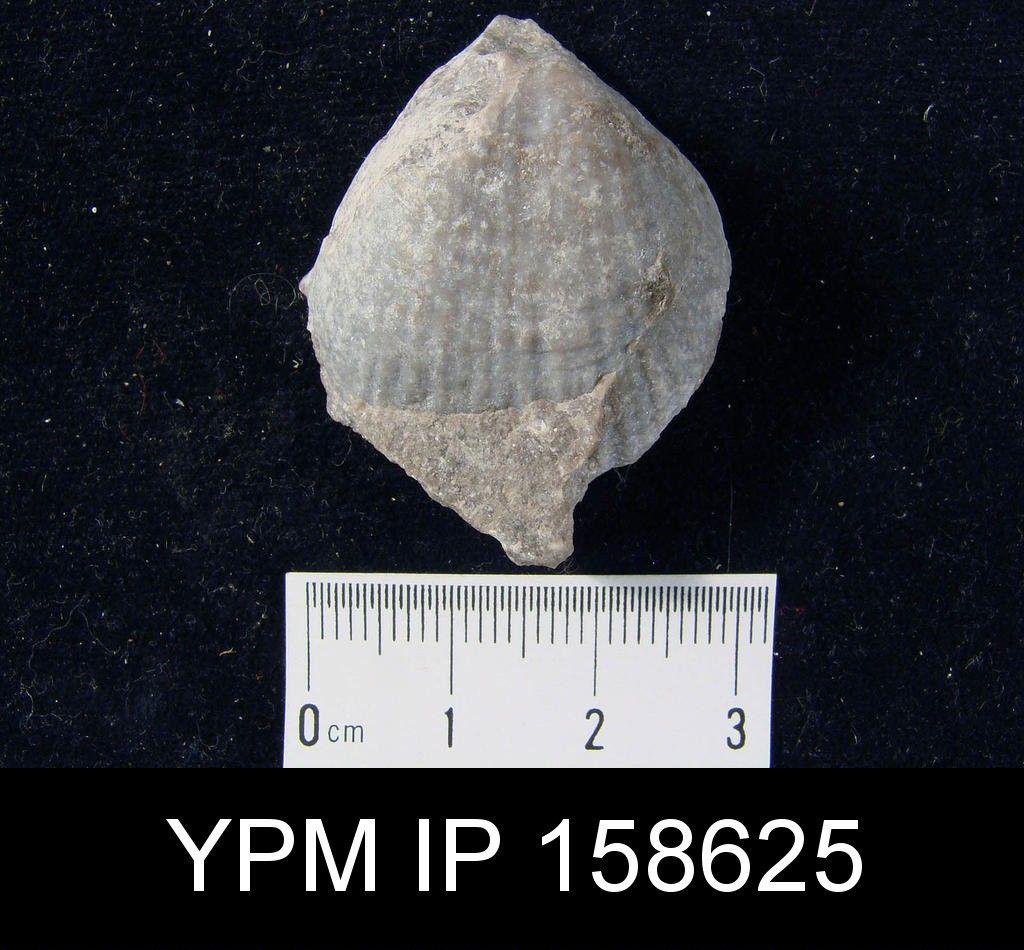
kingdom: Animalia
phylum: Brachiopoda
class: Rhynchonellata
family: Pentameridae
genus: Clorinda
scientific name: Clorinda
